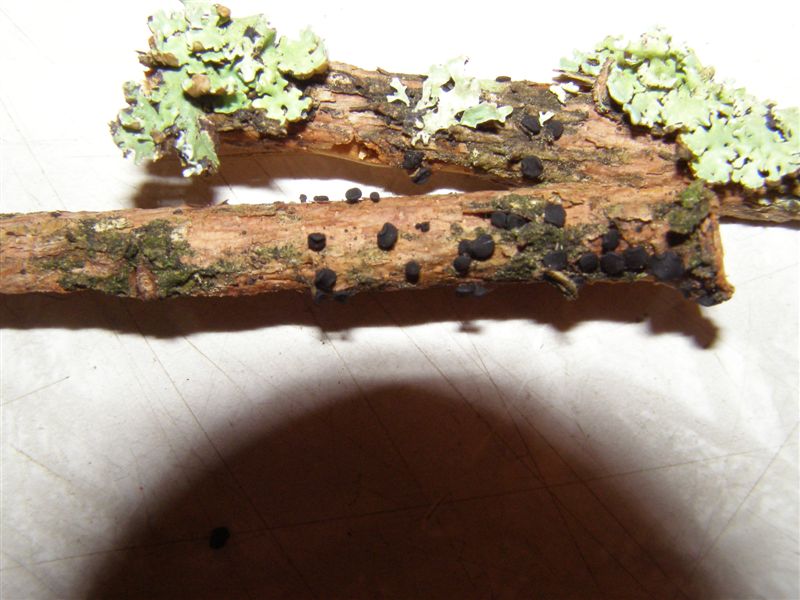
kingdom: Fungi
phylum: Ascomycota
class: Leotiomycetes
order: Helotiales
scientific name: Helotiales
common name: stilkskiveordenen
